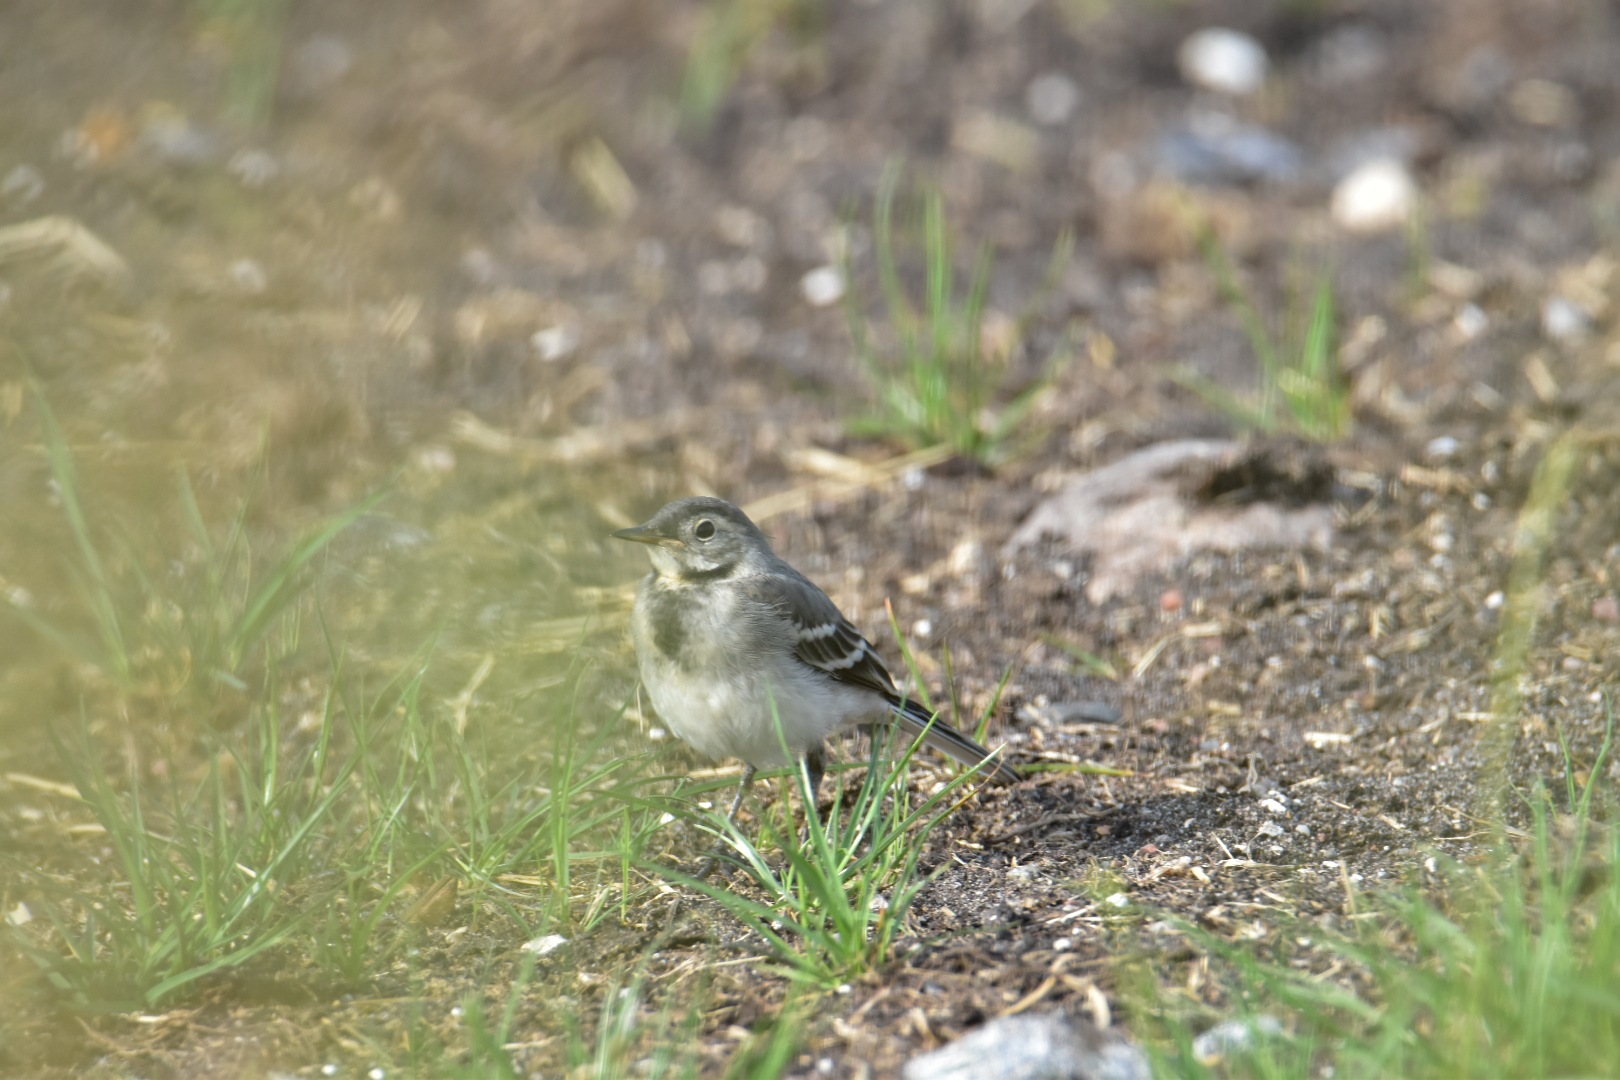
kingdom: Animalia
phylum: Chordata
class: Aves
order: Passeriformes
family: Motacillidae
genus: Motacilla
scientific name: Motacilla alba
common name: Hvid vipstjert
